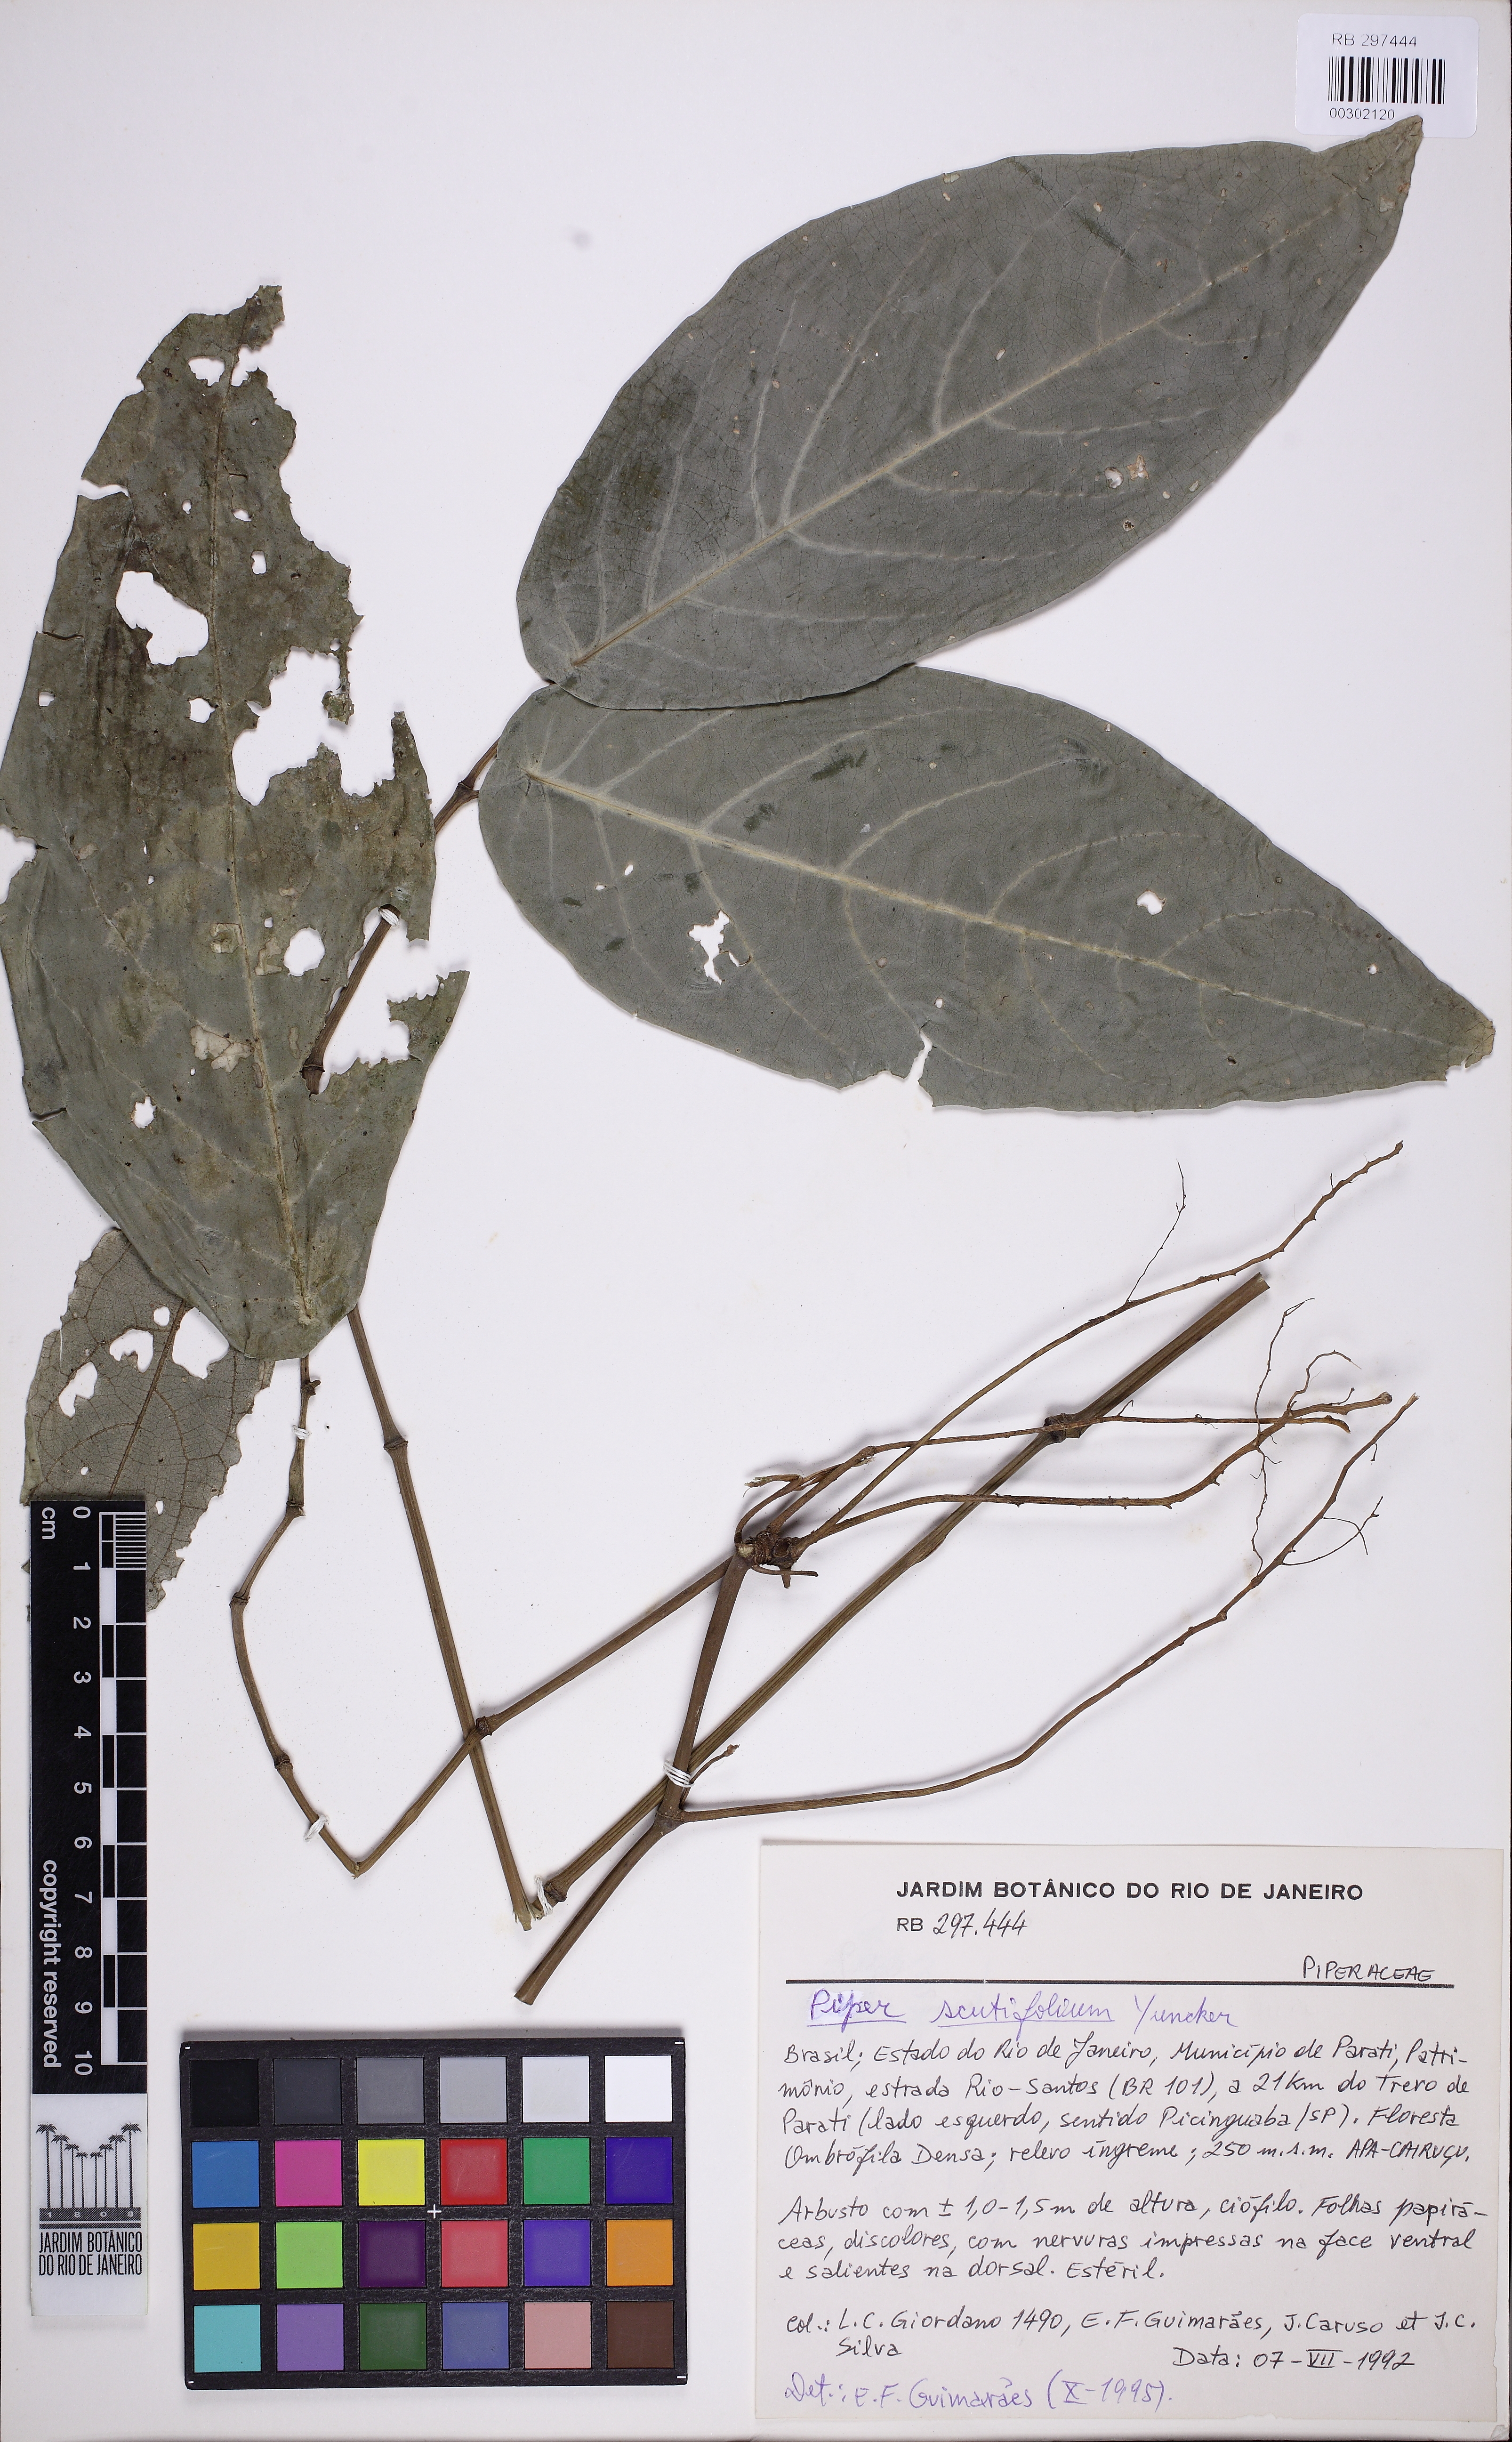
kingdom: Plantae
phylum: Tracheophyta
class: Magnoliopsida
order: Piperales
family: Piperaceae
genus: Piper
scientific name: Piper scutifolium
